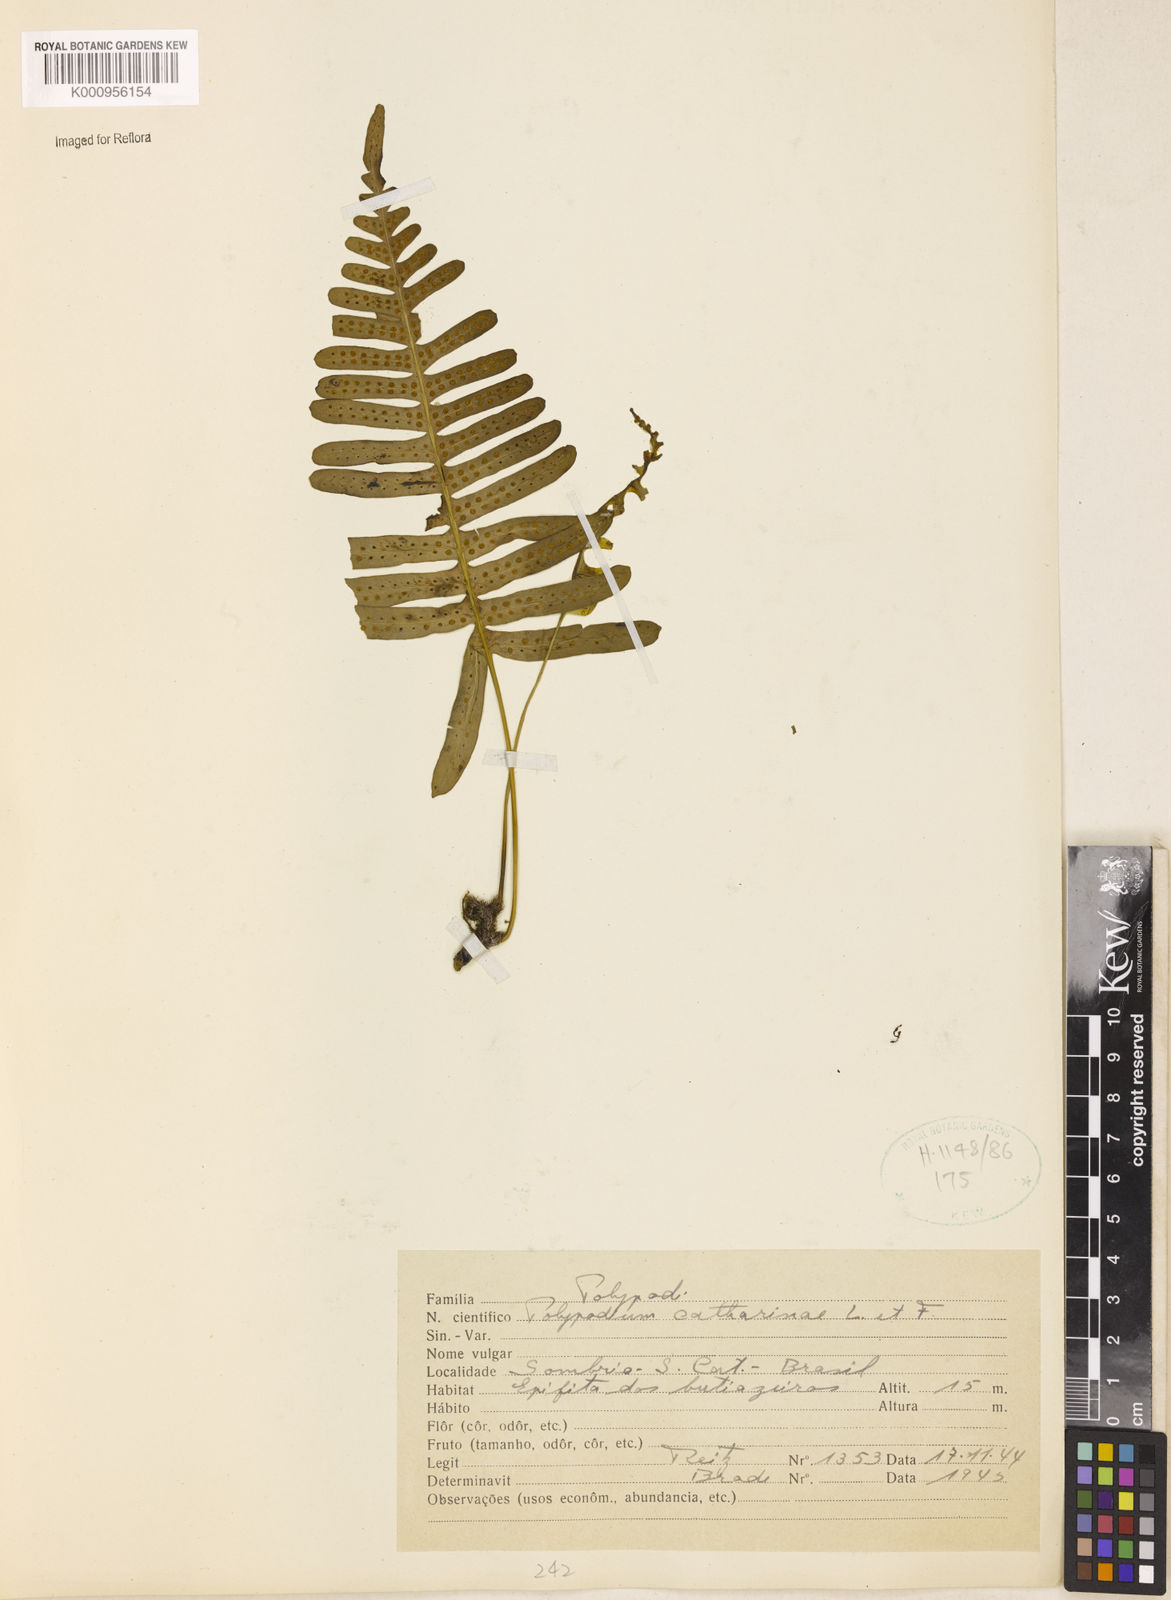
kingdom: Plantae
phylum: Tracheophyta
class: Polypodiopsida
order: Polypodiales
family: Polypodiaceae
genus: Serpocaulon
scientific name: Serpocaulon catharinae
